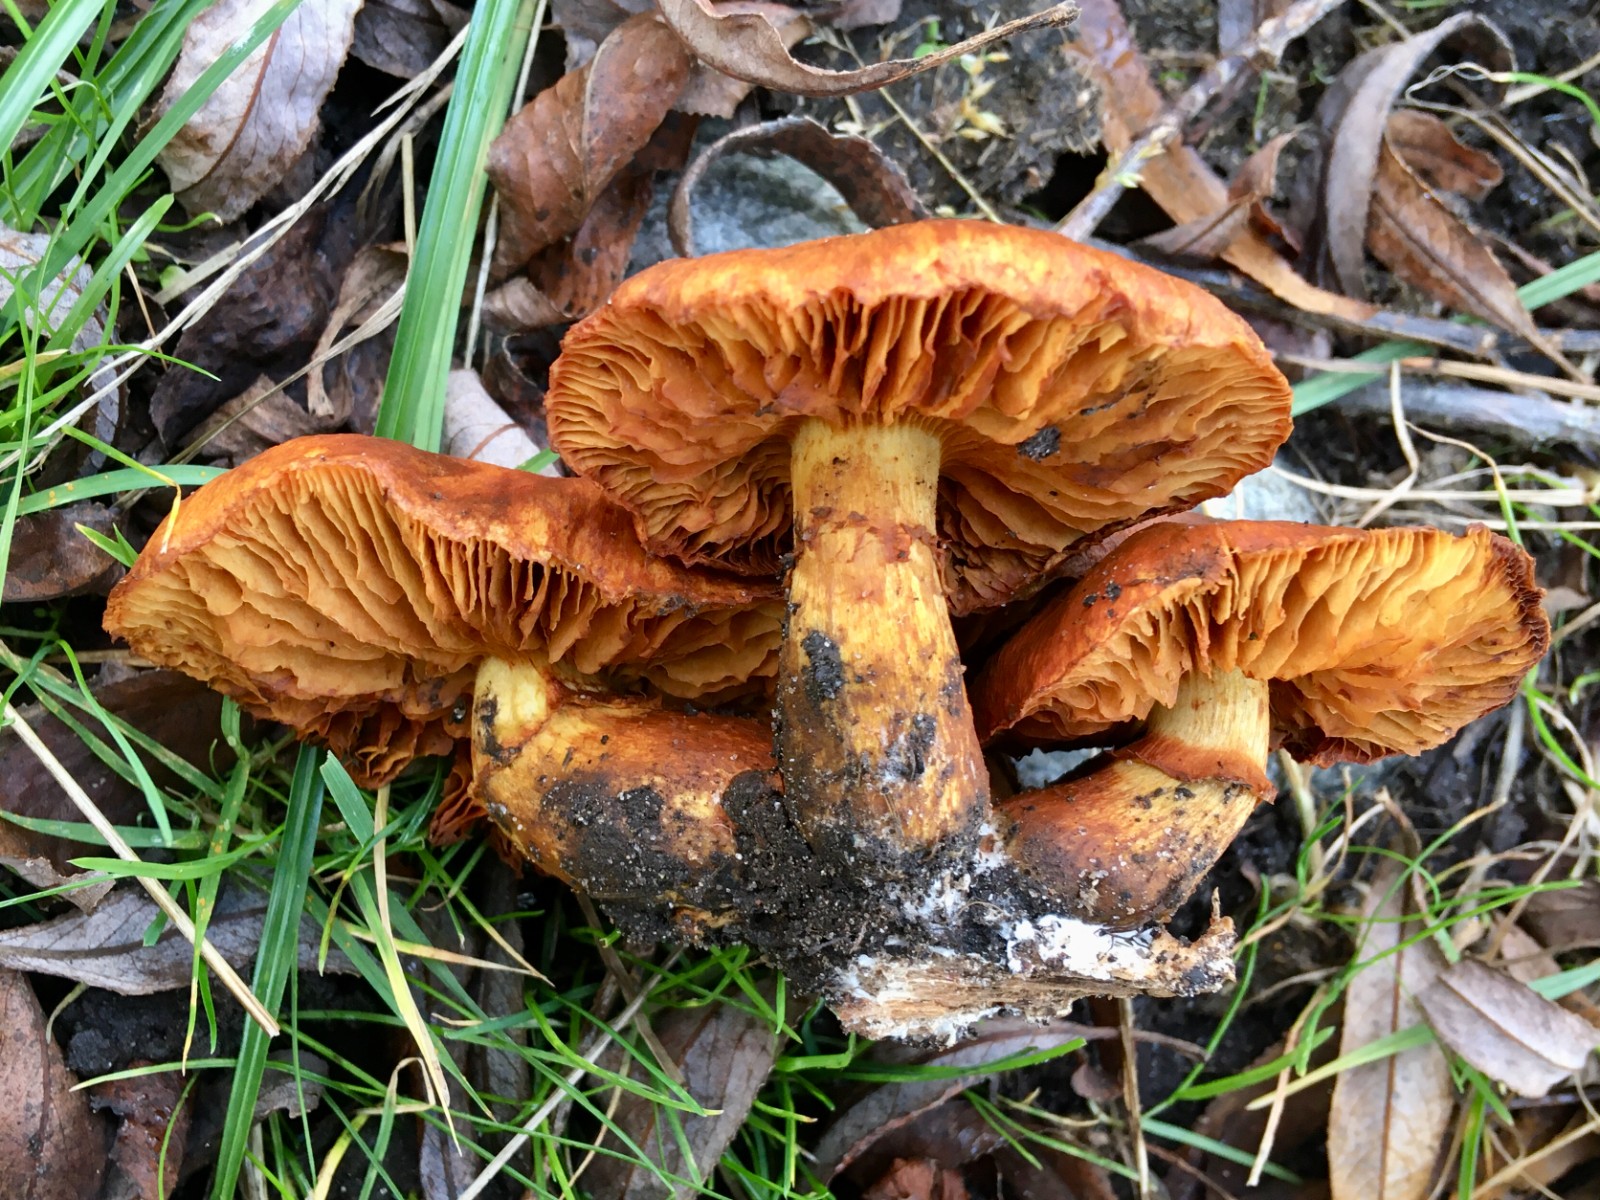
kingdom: Fungi
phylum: Basidiomycota
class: Agaricomycetes
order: Agaricales
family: Hymenogastraceae
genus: Gymnopilus
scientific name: Gymnopilus spectabilis
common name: fibret flammehat
